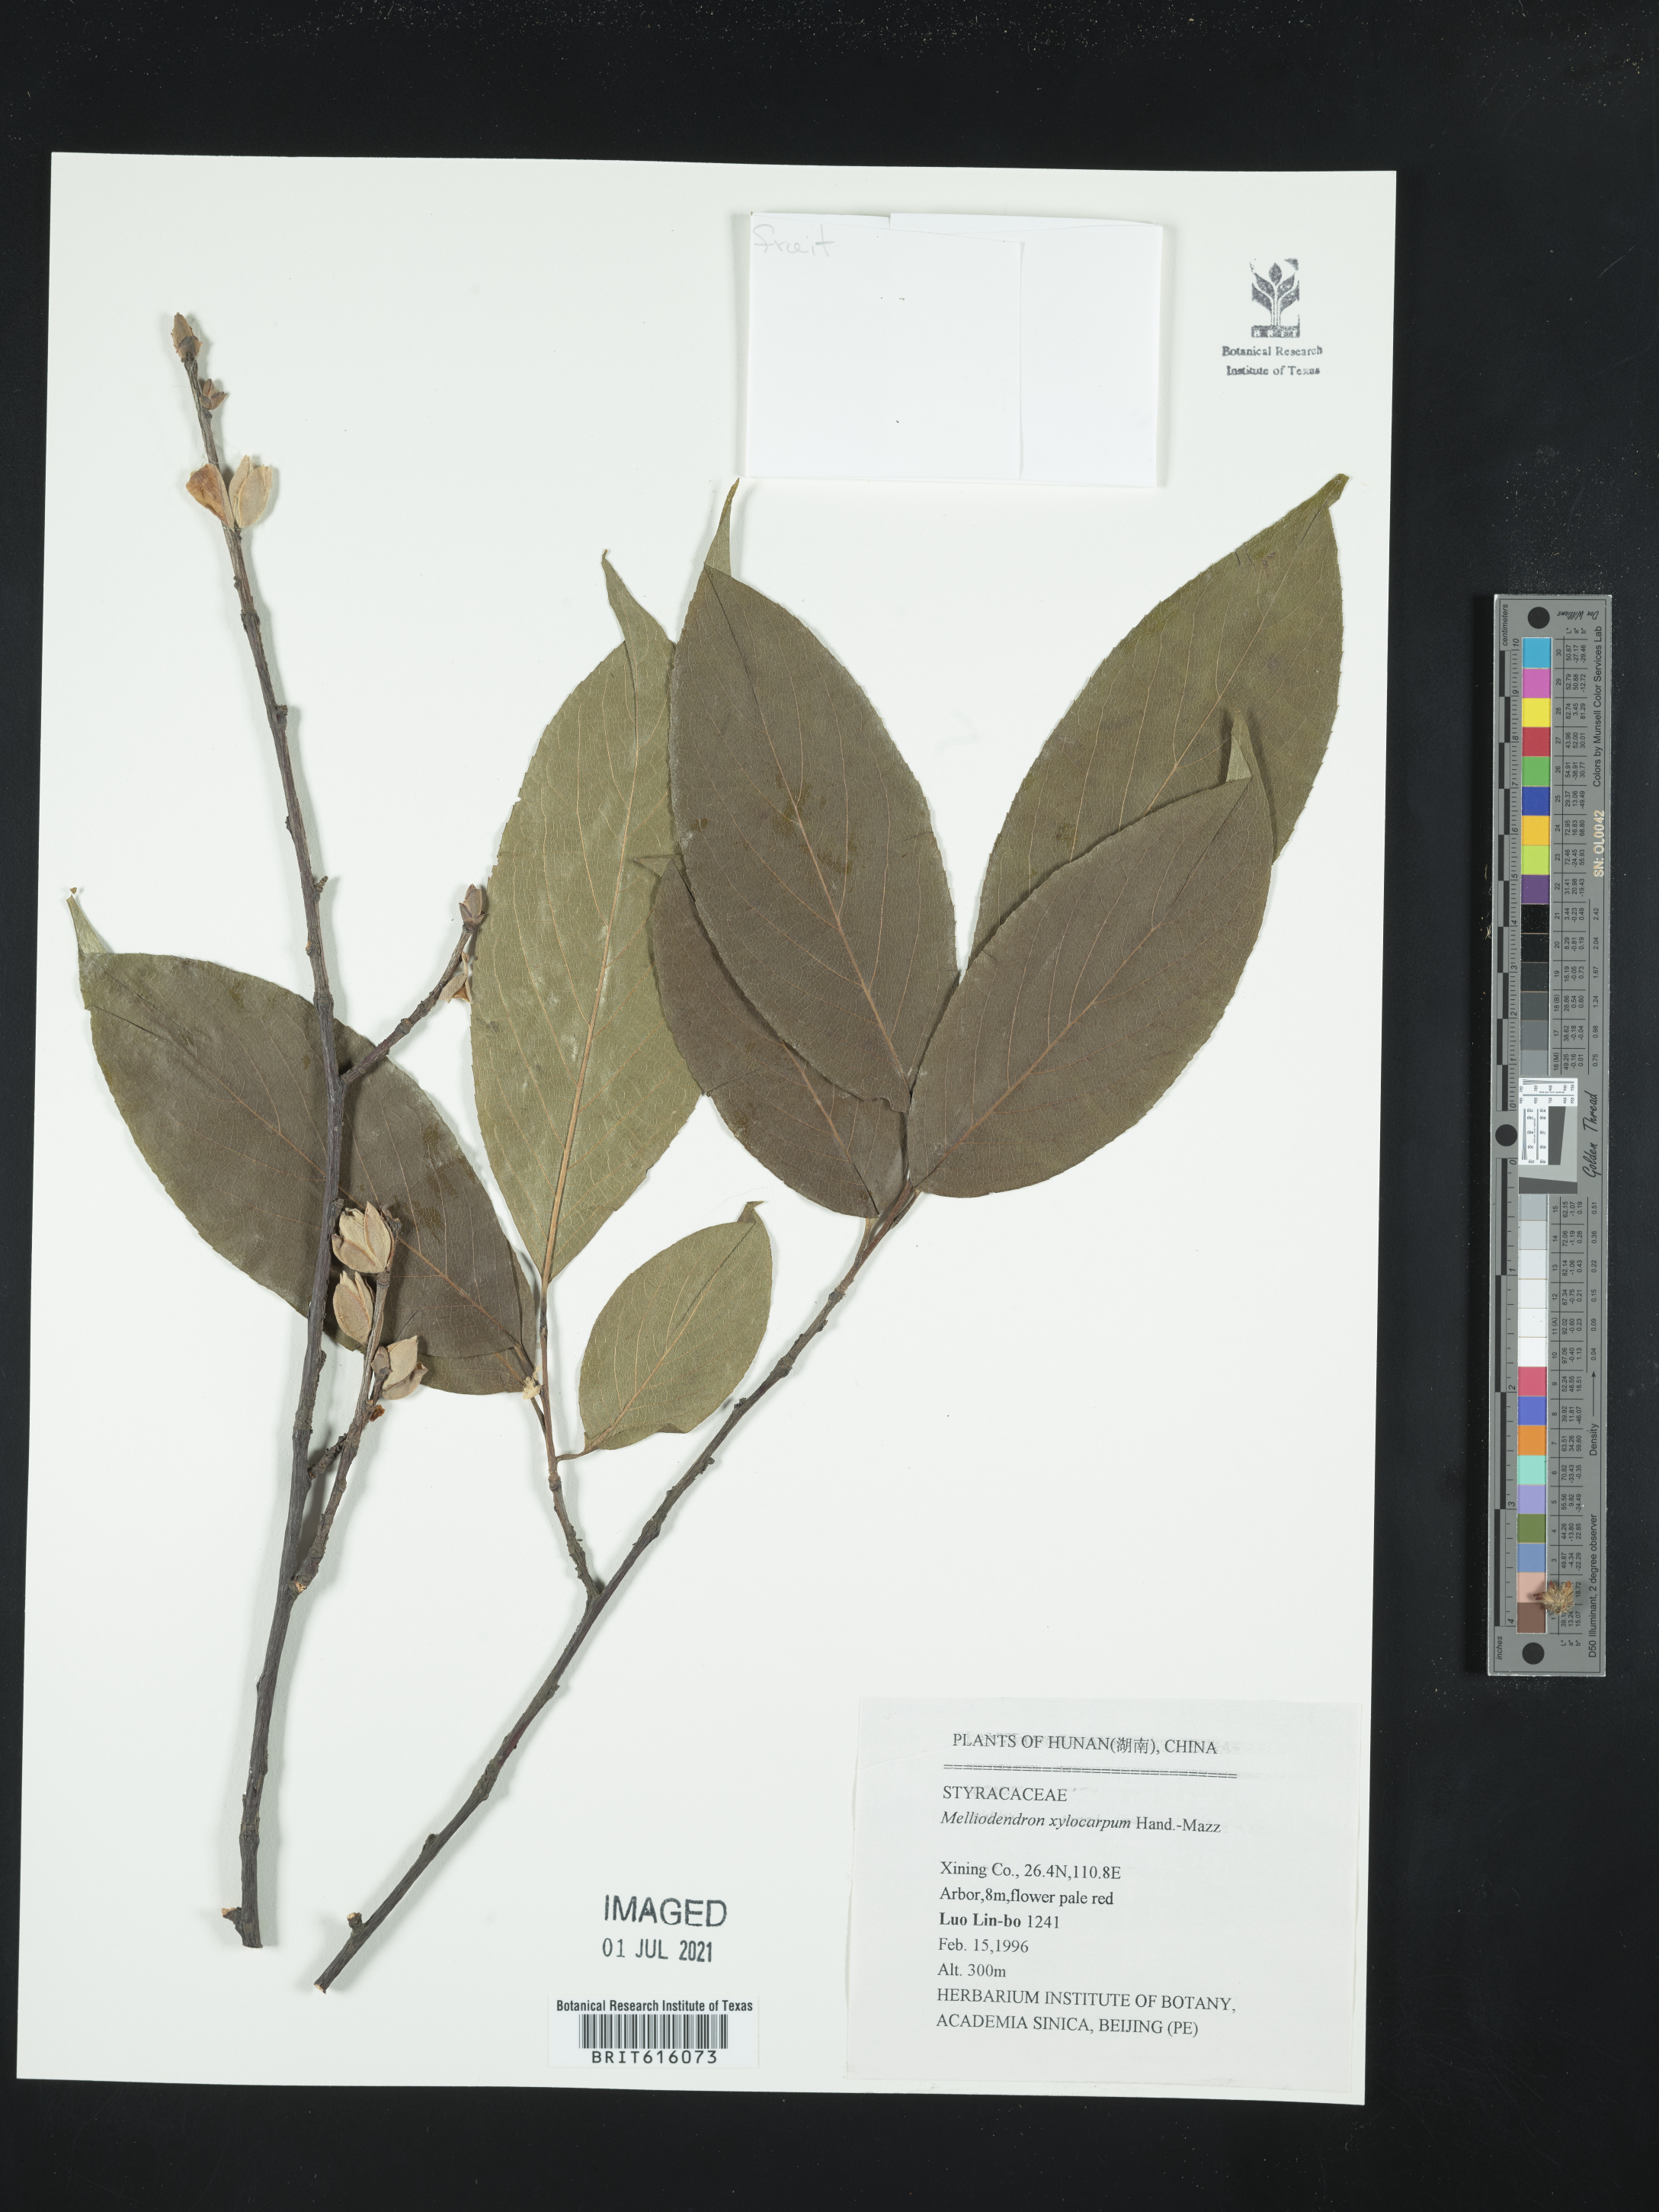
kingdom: Plantae
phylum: Tracheophyta
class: Magnoliopsida
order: Ericales
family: Styracaceae
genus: Melliodendron
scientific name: Melliodendron xylocarpum
